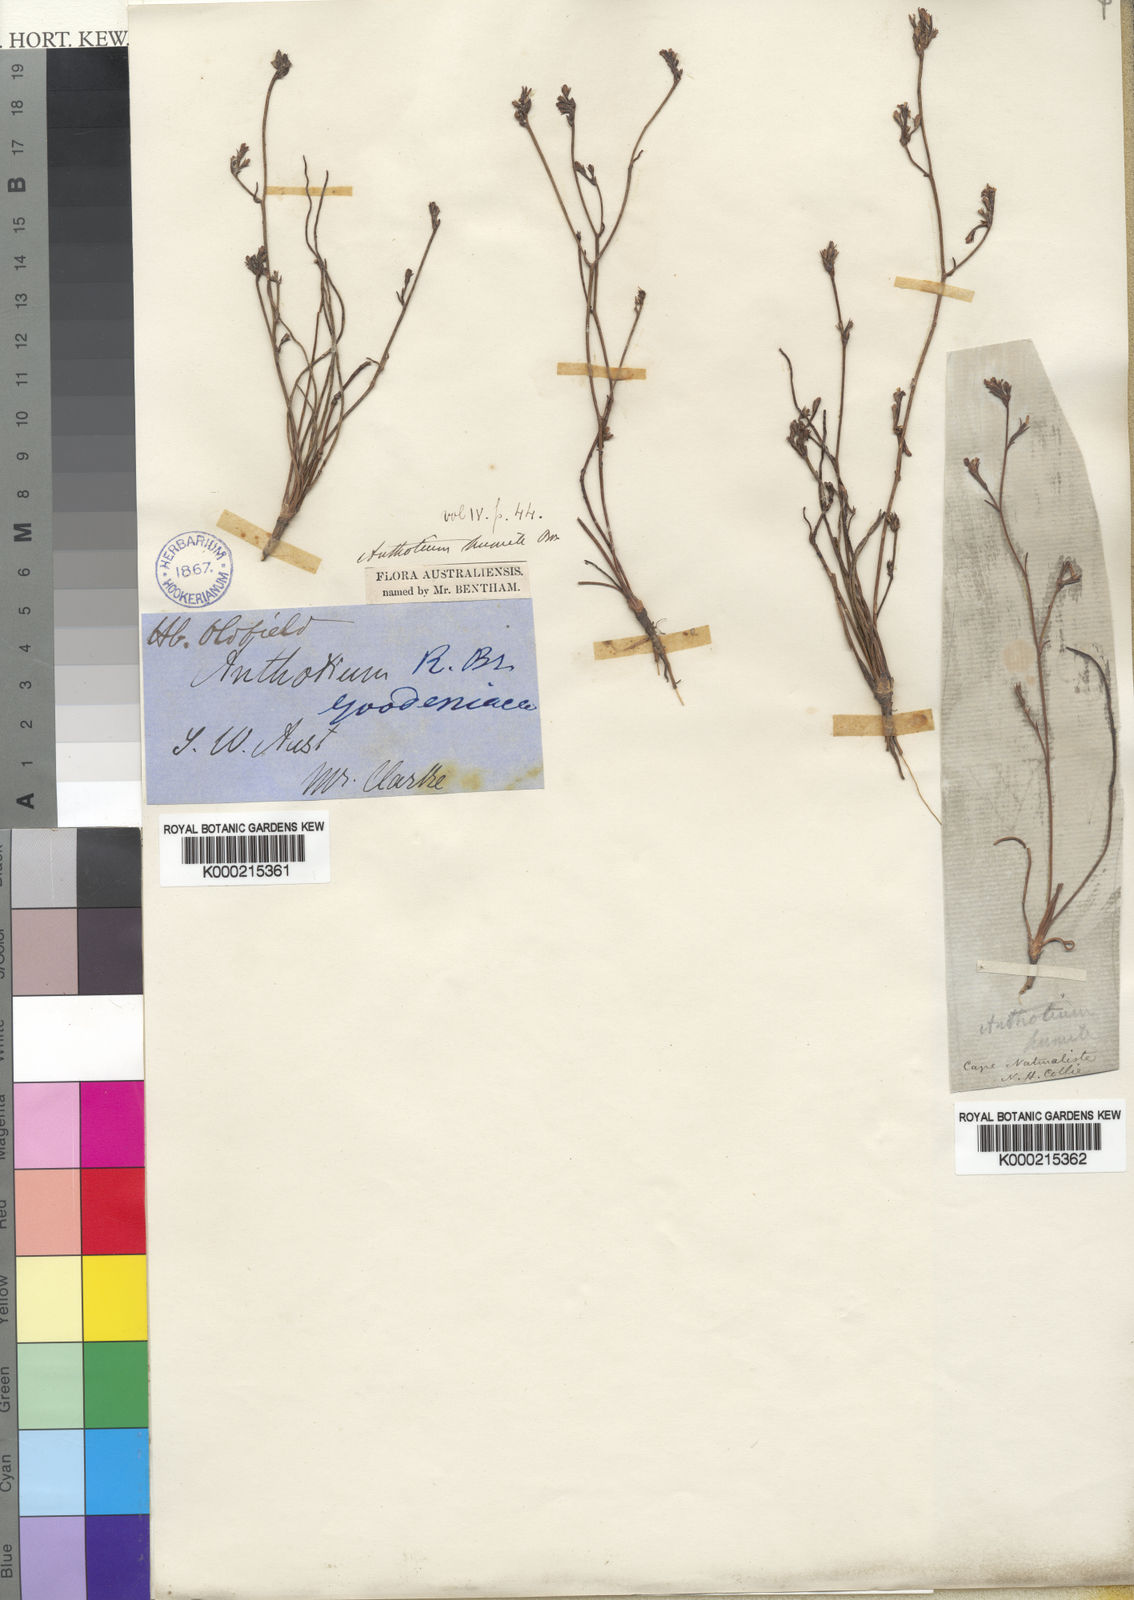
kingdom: Plantae
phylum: Tracheophyta
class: Magnoliopsida
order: Asterales
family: Goodeniaceae
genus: Anthotium
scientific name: Anthotium humile
